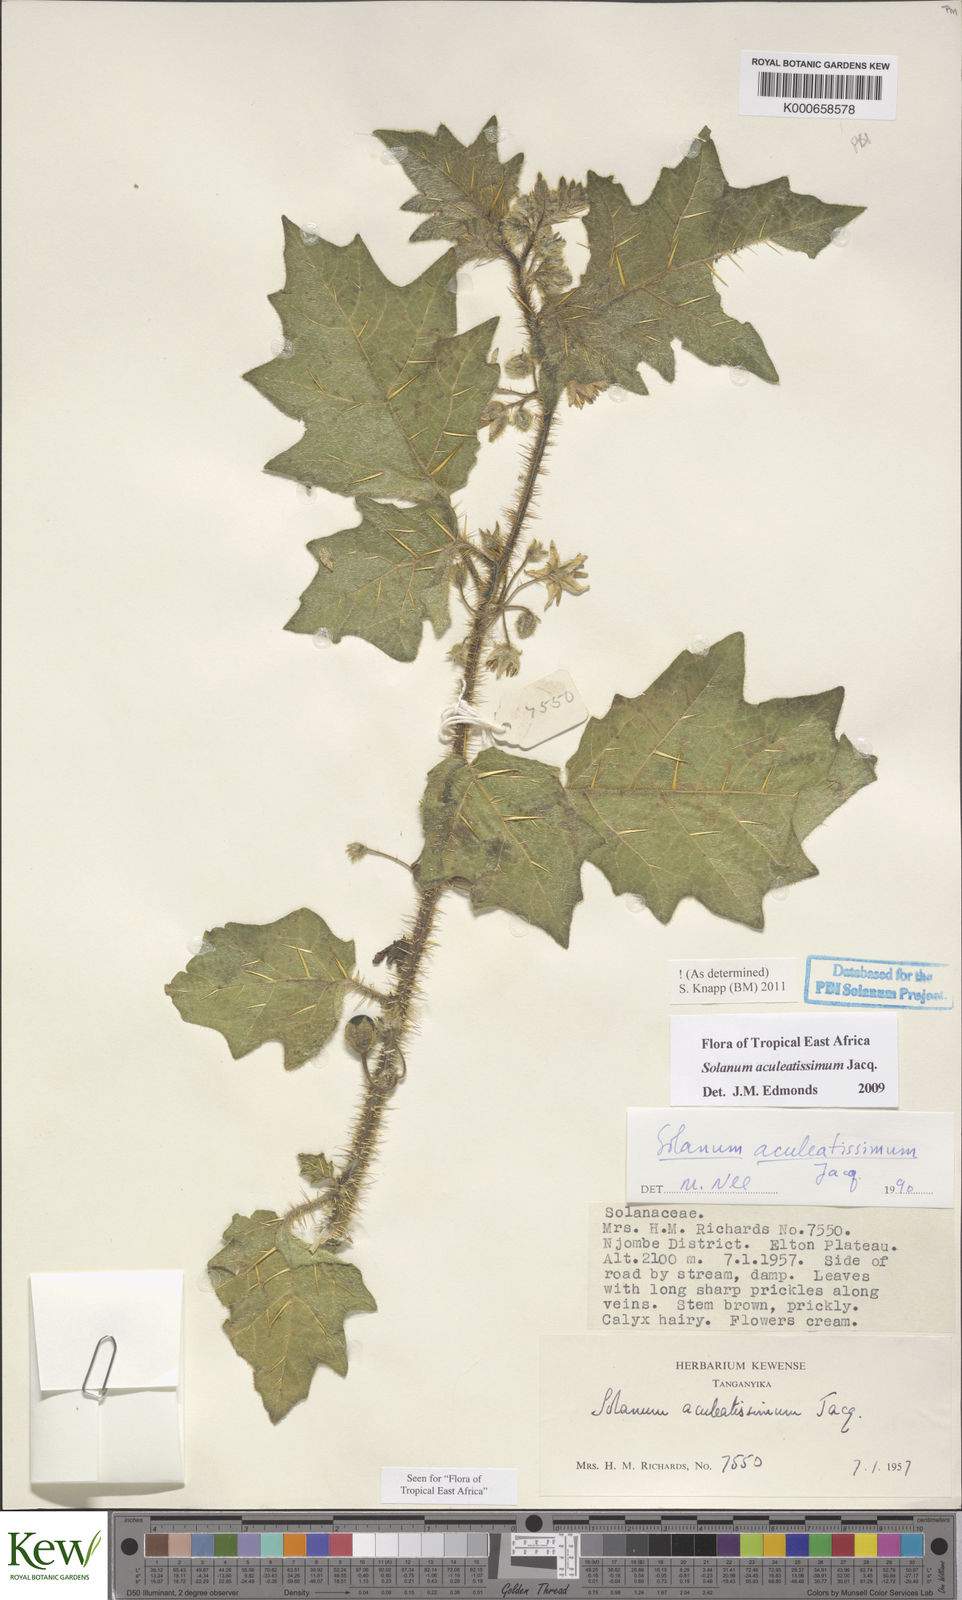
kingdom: Plantae
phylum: Tracheophyta
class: Magnoliopsida
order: Solanales
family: Solanaceae
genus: Solanum
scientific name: Solanum aculeatissimum
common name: Dutch eggplant
